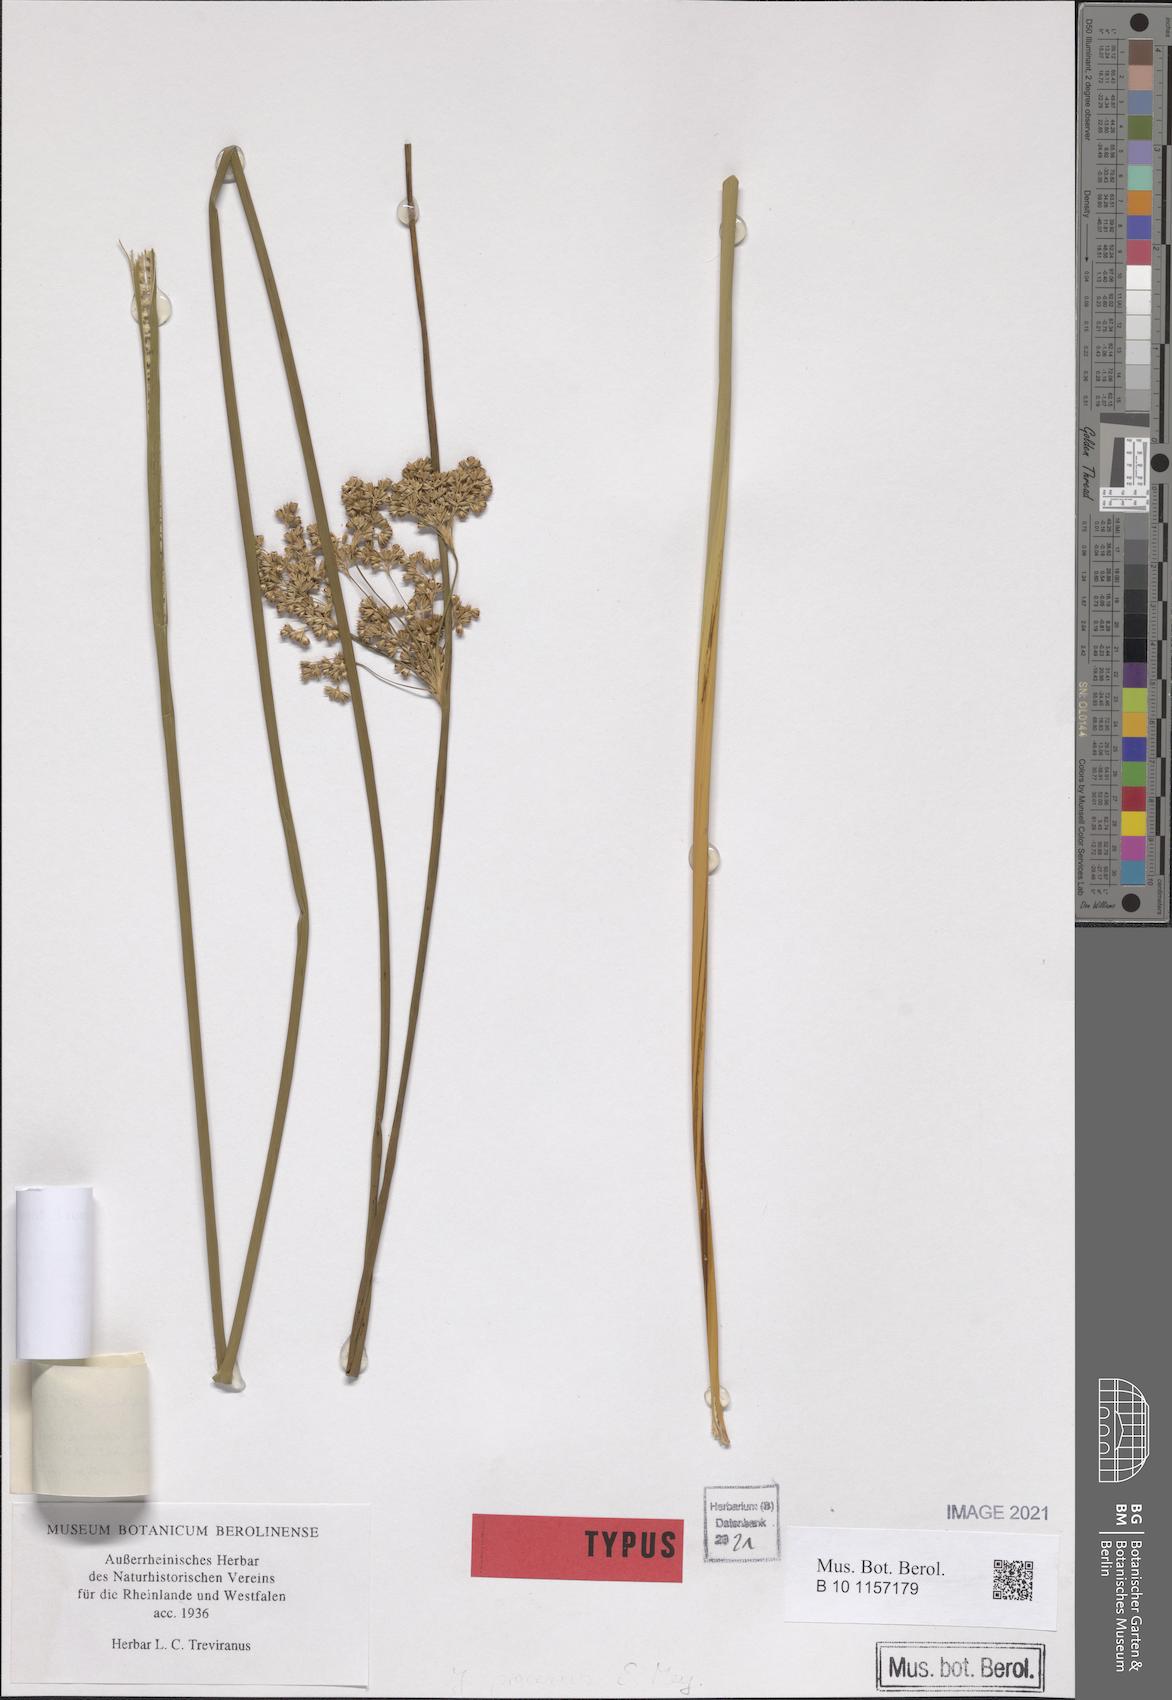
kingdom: Plantae
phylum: Tracheophyta
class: Liliopsida
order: Poales
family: Juncaceae
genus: Juncus
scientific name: Juncus procerus
